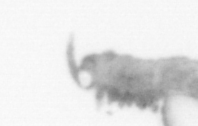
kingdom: Animalia
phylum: Annelida
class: Polychaeta
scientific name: Polychaeta
